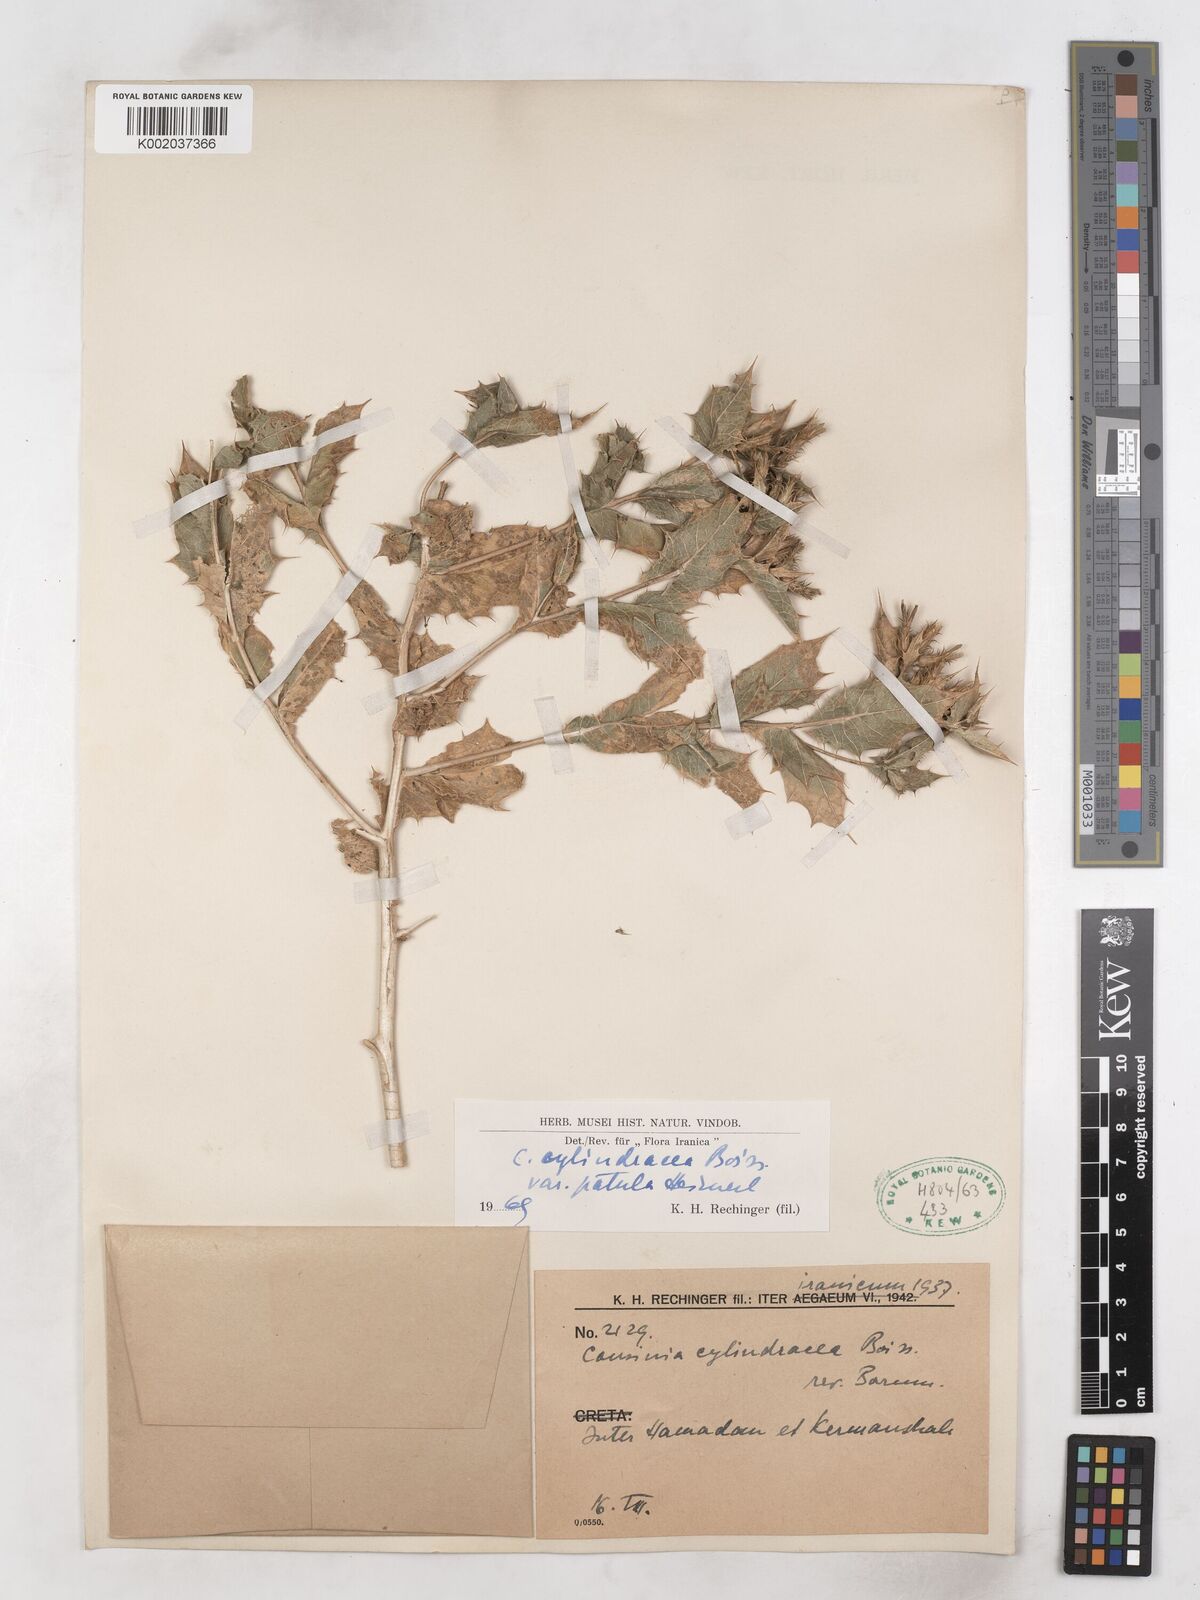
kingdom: Plantae
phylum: Tracheophyta
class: Magnoliopsida
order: Asterales
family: Asteraceae
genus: Cousinia
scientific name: Cousinia cylindracea
